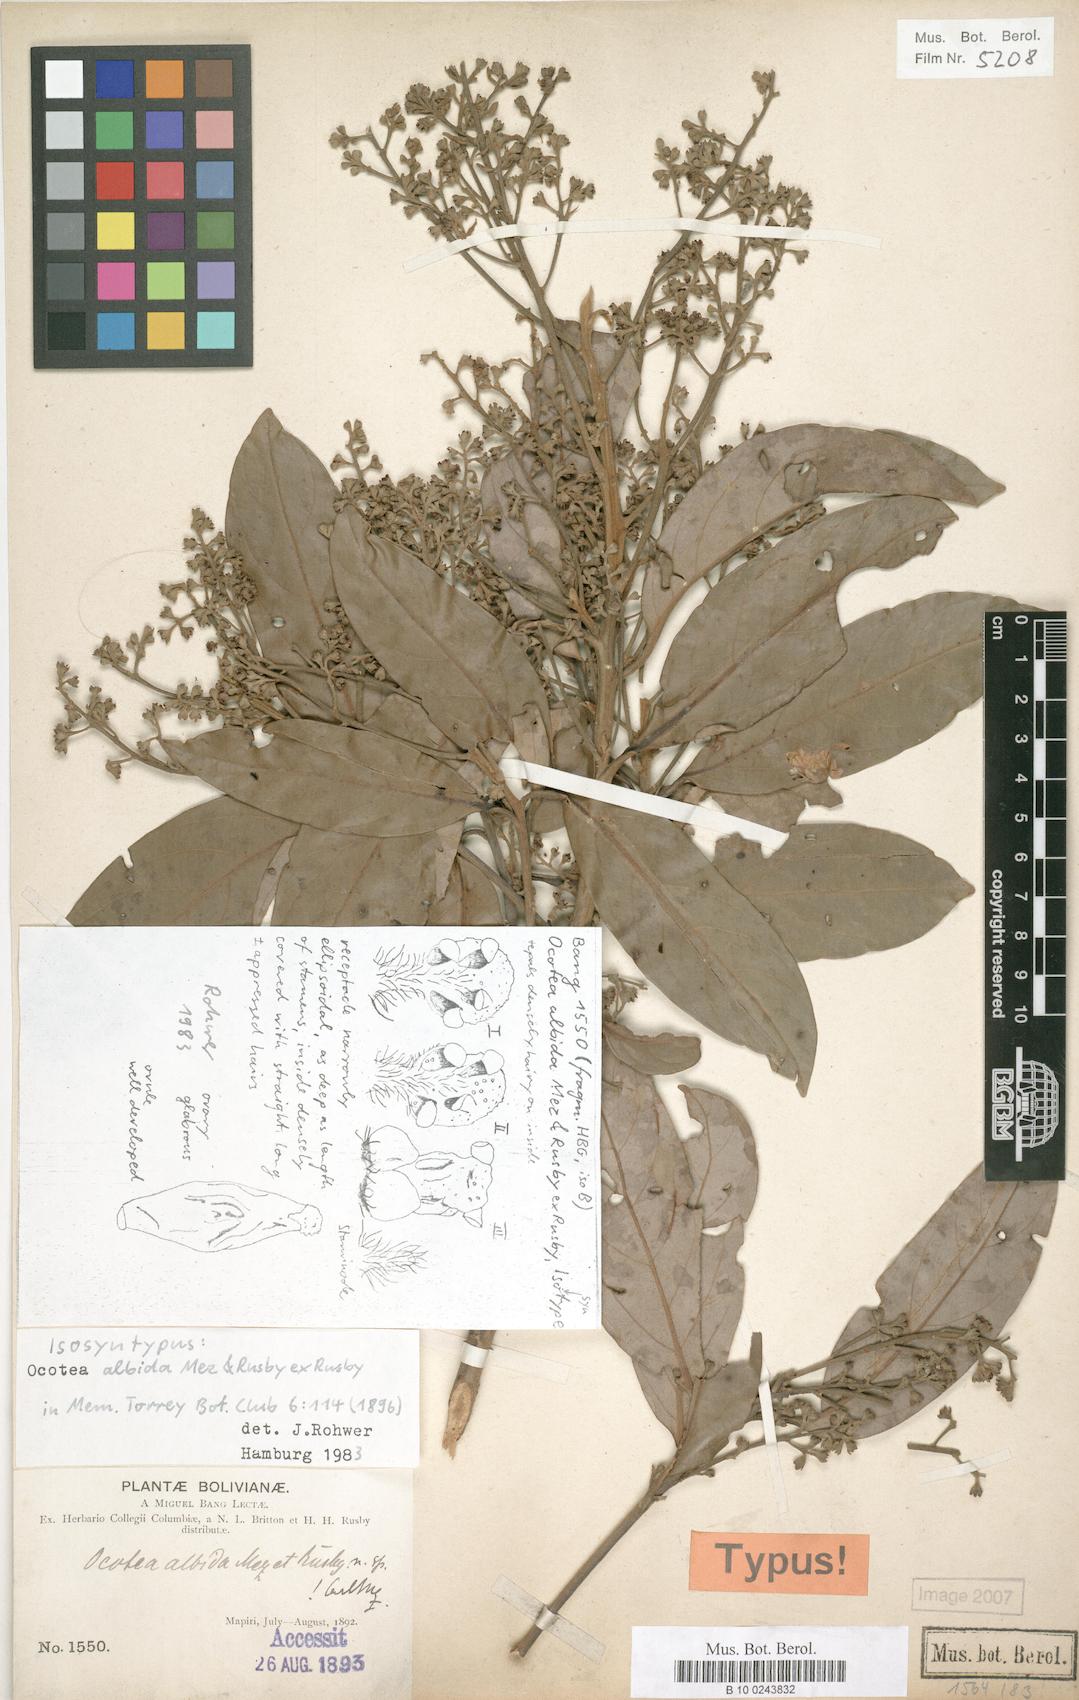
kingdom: Plantae
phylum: Tracheophyta
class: Magnoliopsida
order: Laurales
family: Lauraceae
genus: Ocotea
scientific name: Ocotea albida
